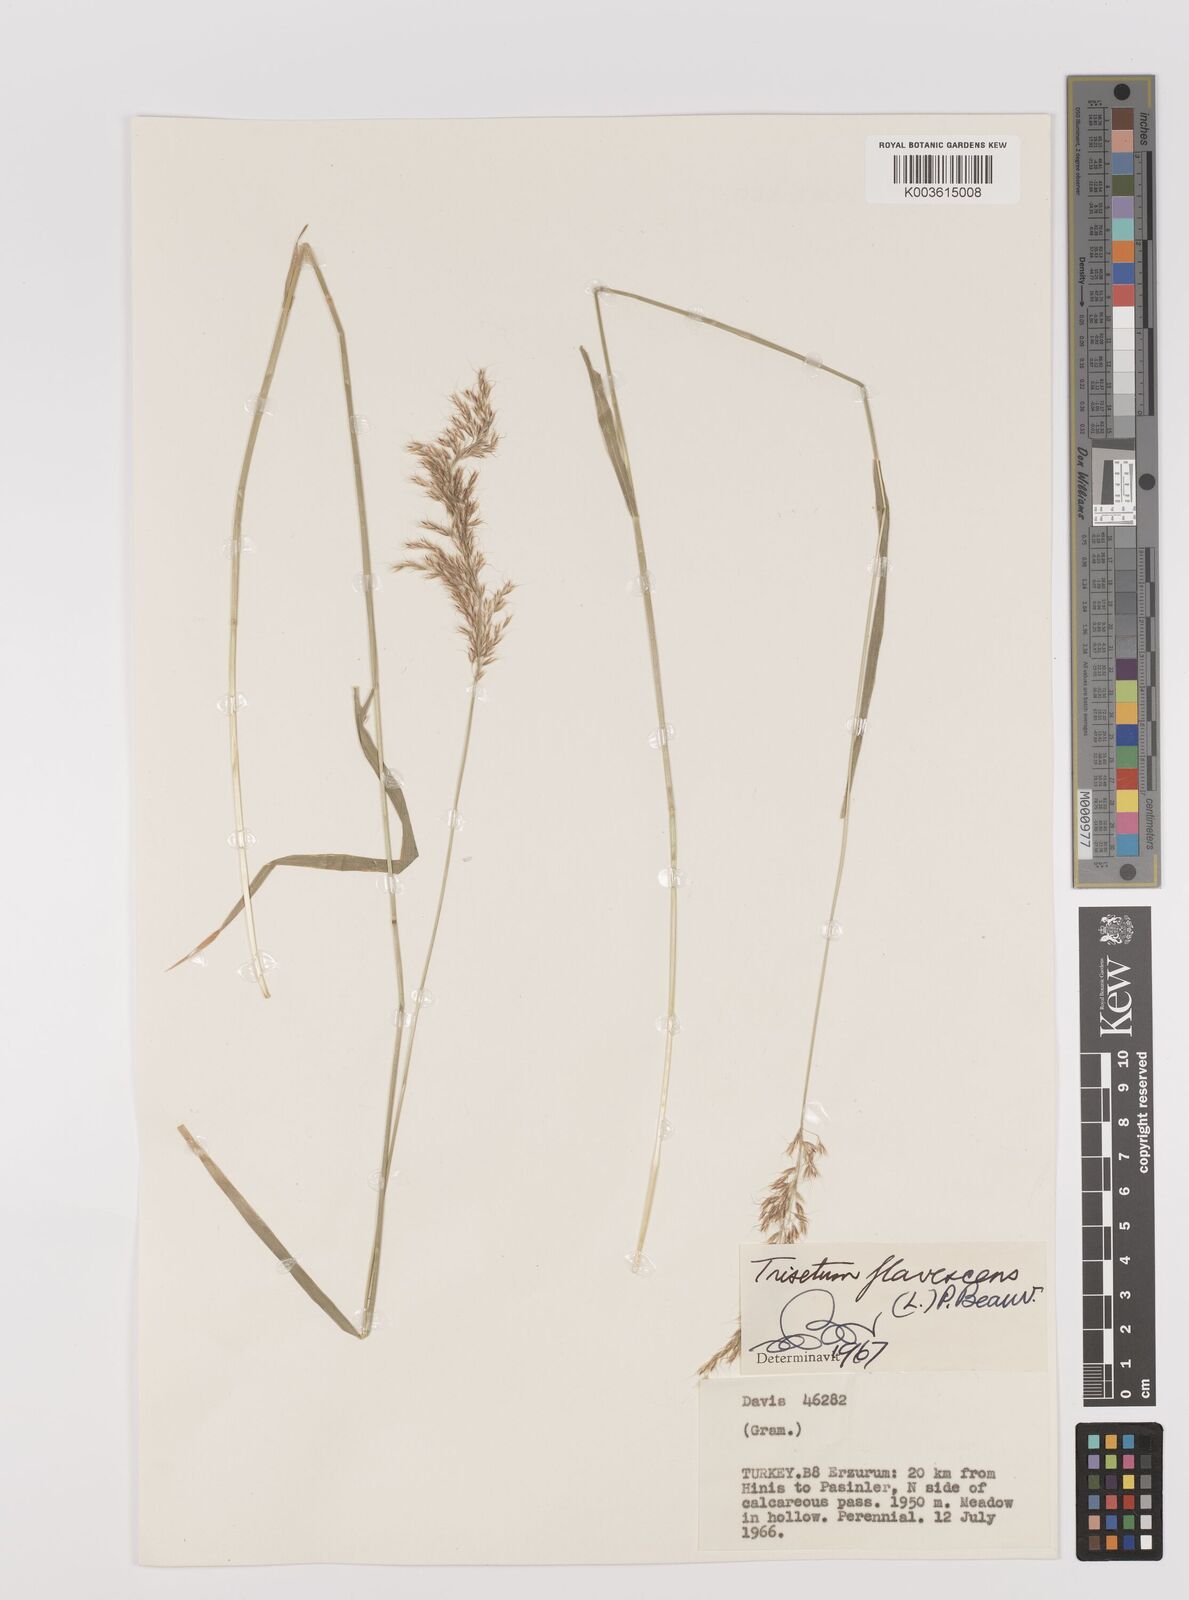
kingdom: Plantae
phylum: Tracheophyta
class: Liliopsida
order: Poales
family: Poaceae
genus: Trisetum
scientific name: Trisetum flavescens
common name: Yellow oat-grass
